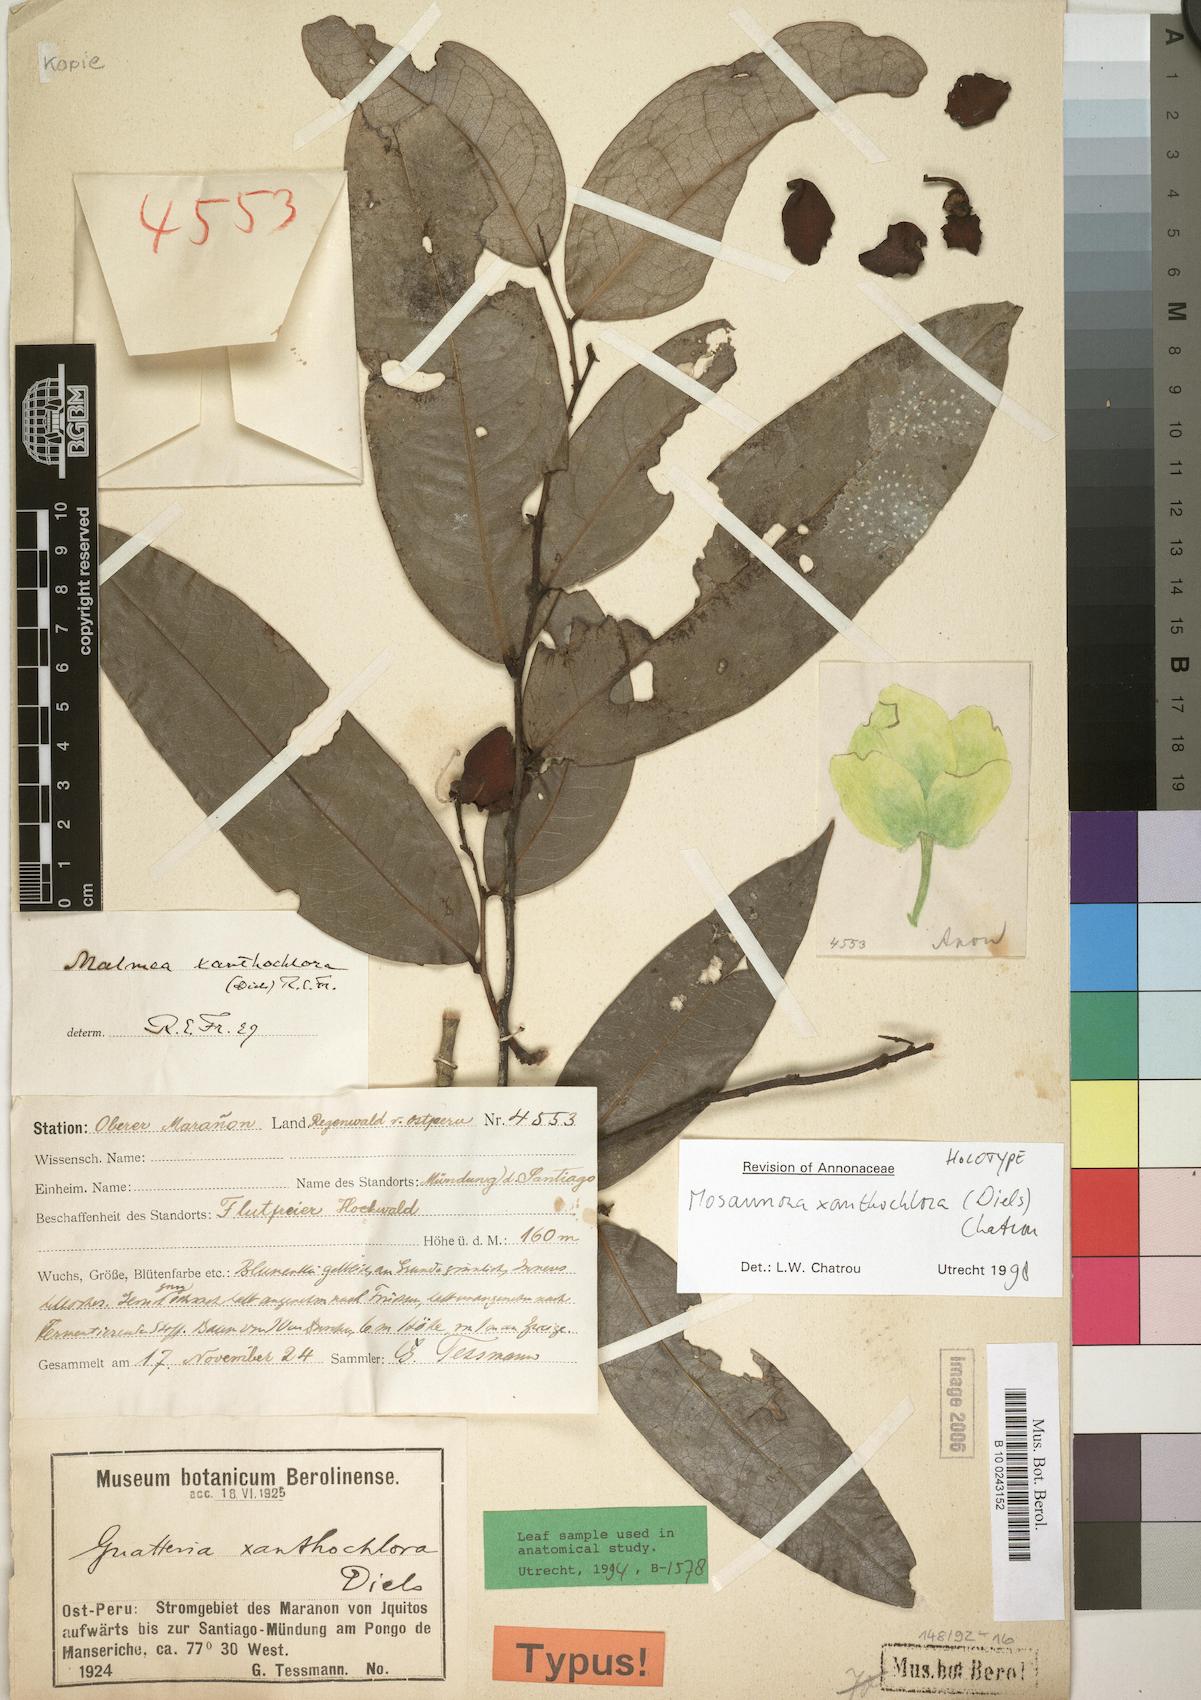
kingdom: Plantae
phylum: Tracheophyta
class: Magnoliopsida
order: Magnoliales
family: Annonaceae
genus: Mosannona
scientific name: Mosannona xanthochlora
